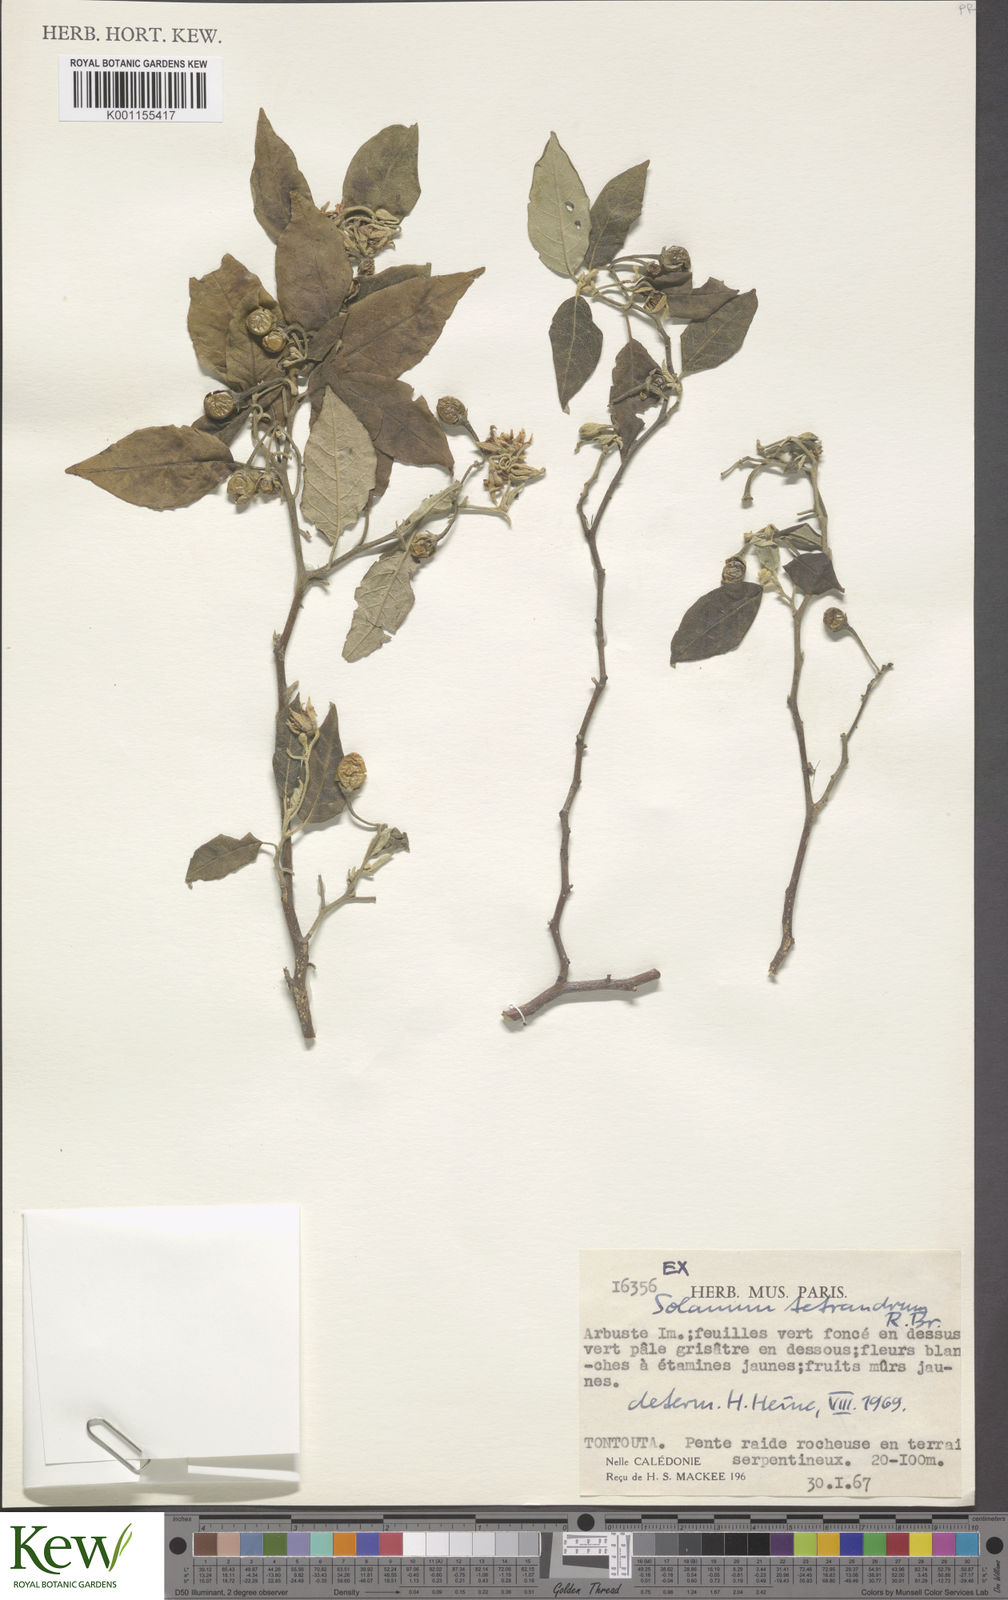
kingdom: Plantae
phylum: Tracheophyta
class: Magnoliopsida
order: Solanales
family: Solanaceae
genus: Solanum
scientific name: Solanum tetrandrum
